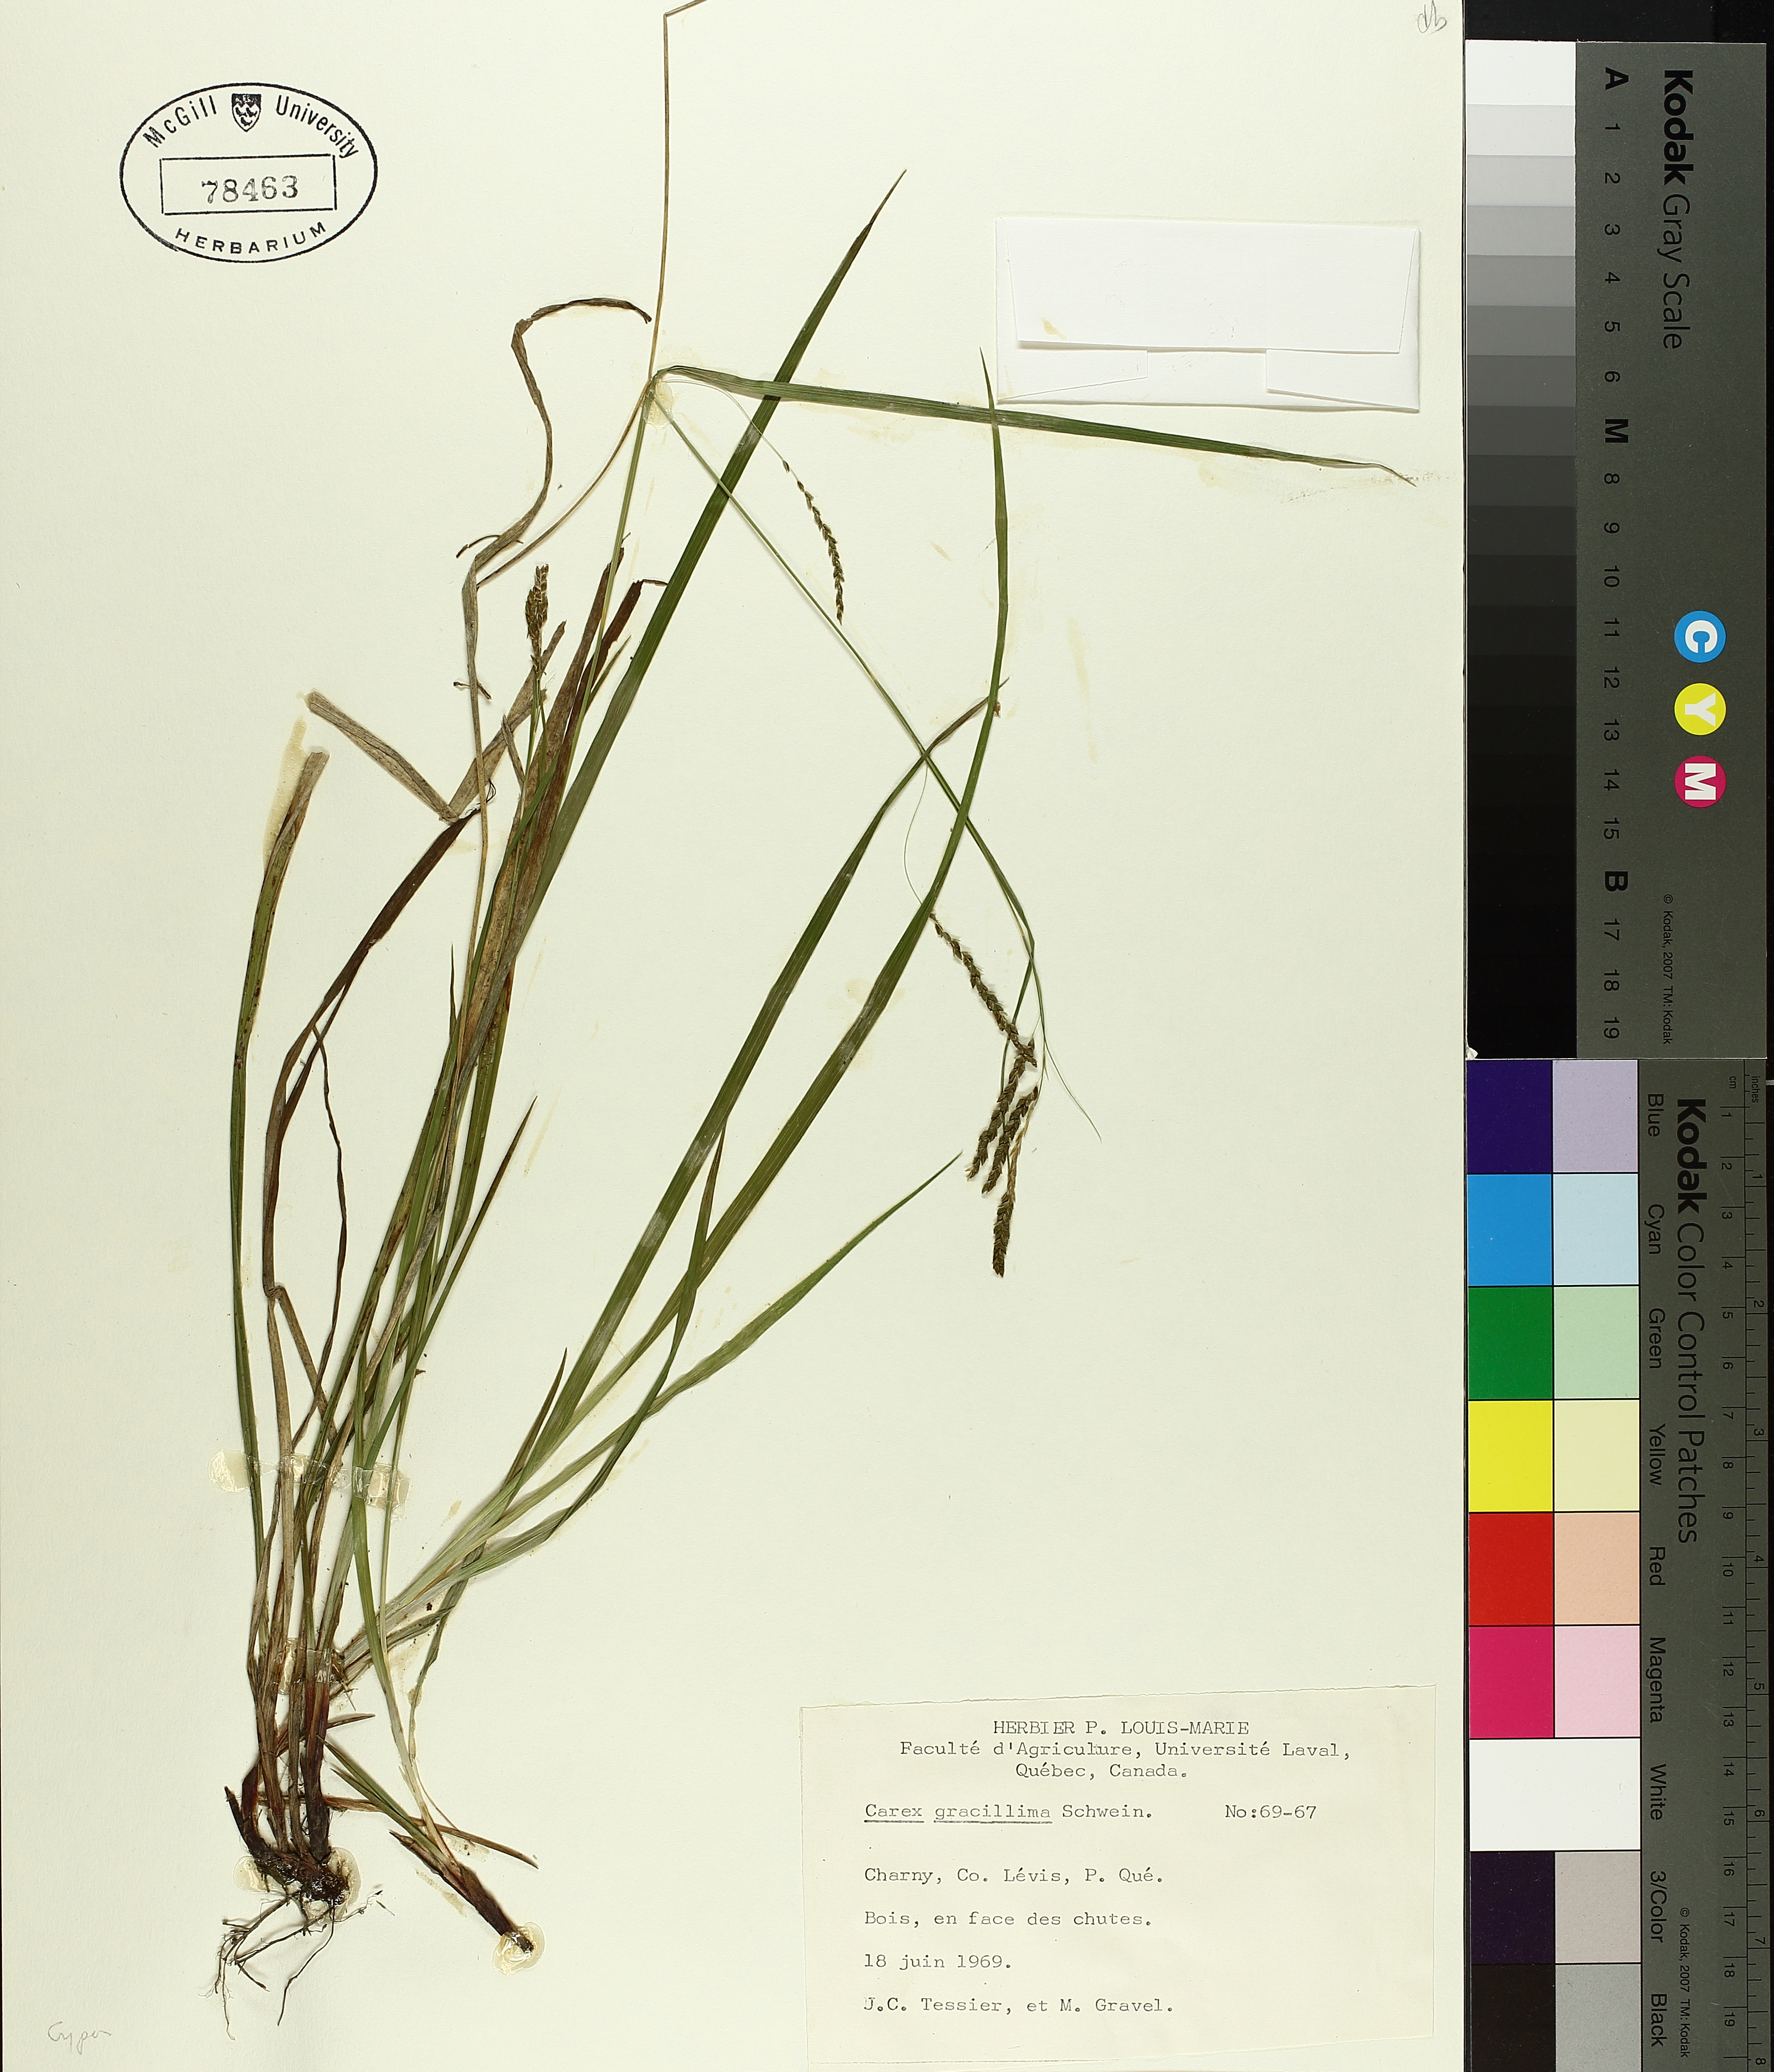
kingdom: Plantae
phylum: Tracheophyta
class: Liliopsida
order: Poales
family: Cyperaceae
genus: Carex
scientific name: Carex gracillima
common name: Graceful sedge
